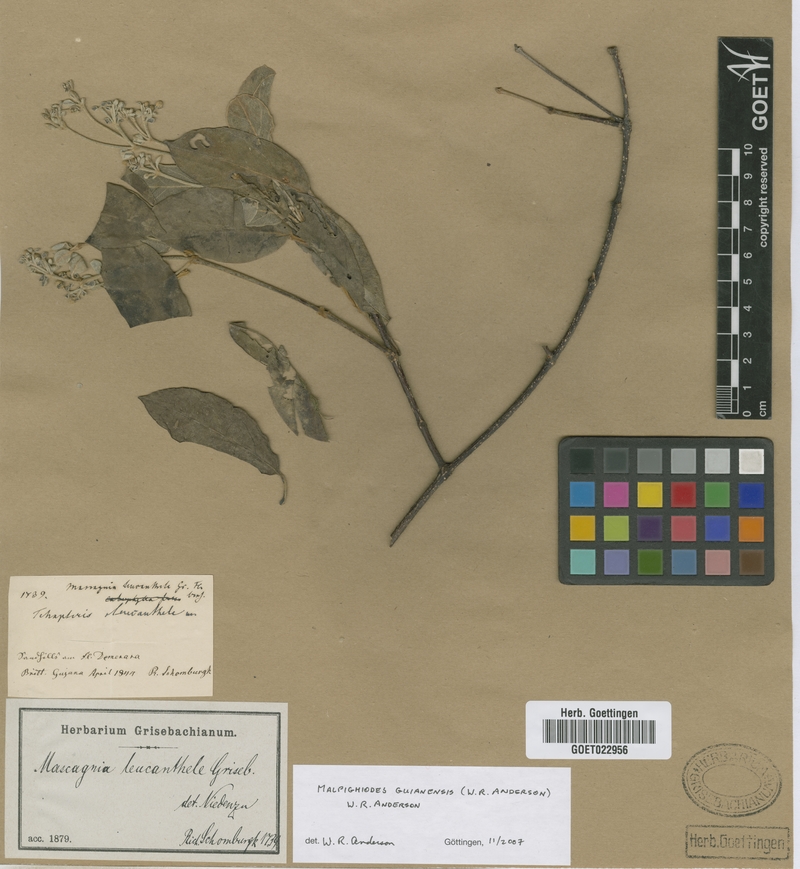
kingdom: Plantae
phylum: Tracheophyta
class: Magnoliopsida
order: Malpighiales
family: Malpighiaceae
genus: Malpighiodes
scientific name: Malpighiodes guianensis
